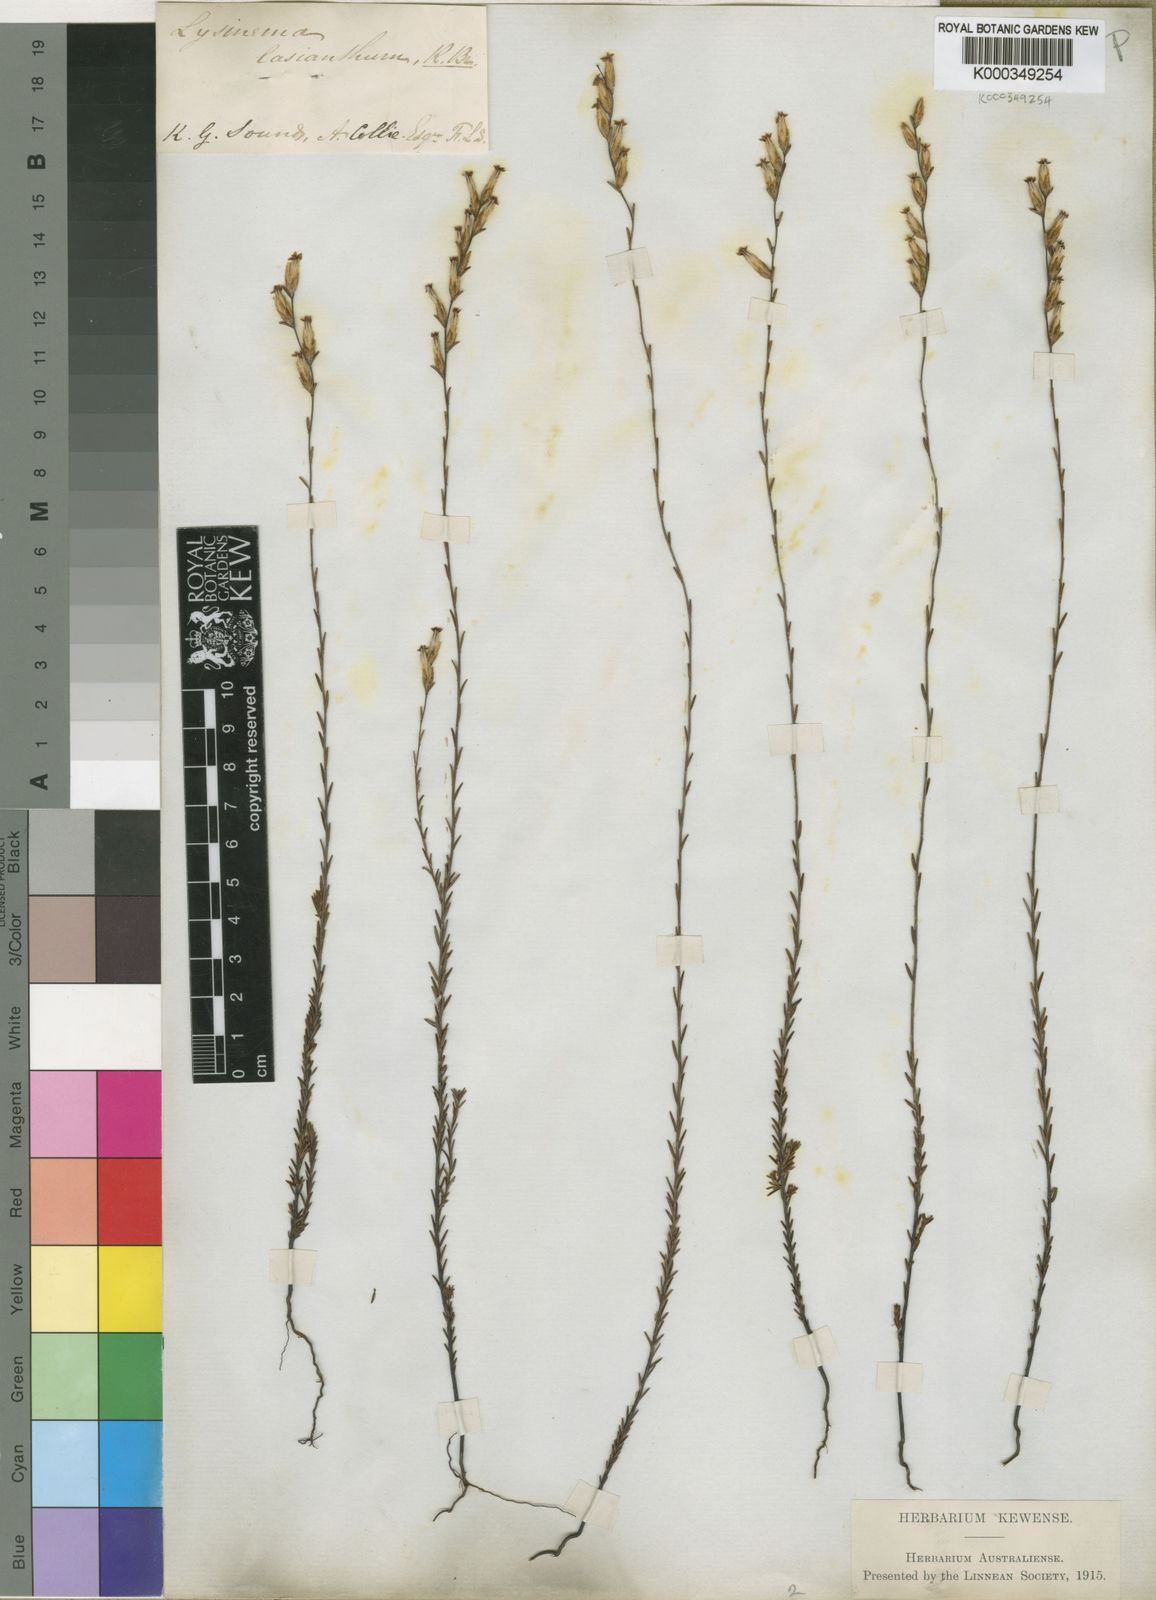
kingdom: Plantae
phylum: Tracheophyta
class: Magnoliopsida
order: Ericales
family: Ericaceae
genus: Lysinema
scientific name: Lysinema lasianthum
